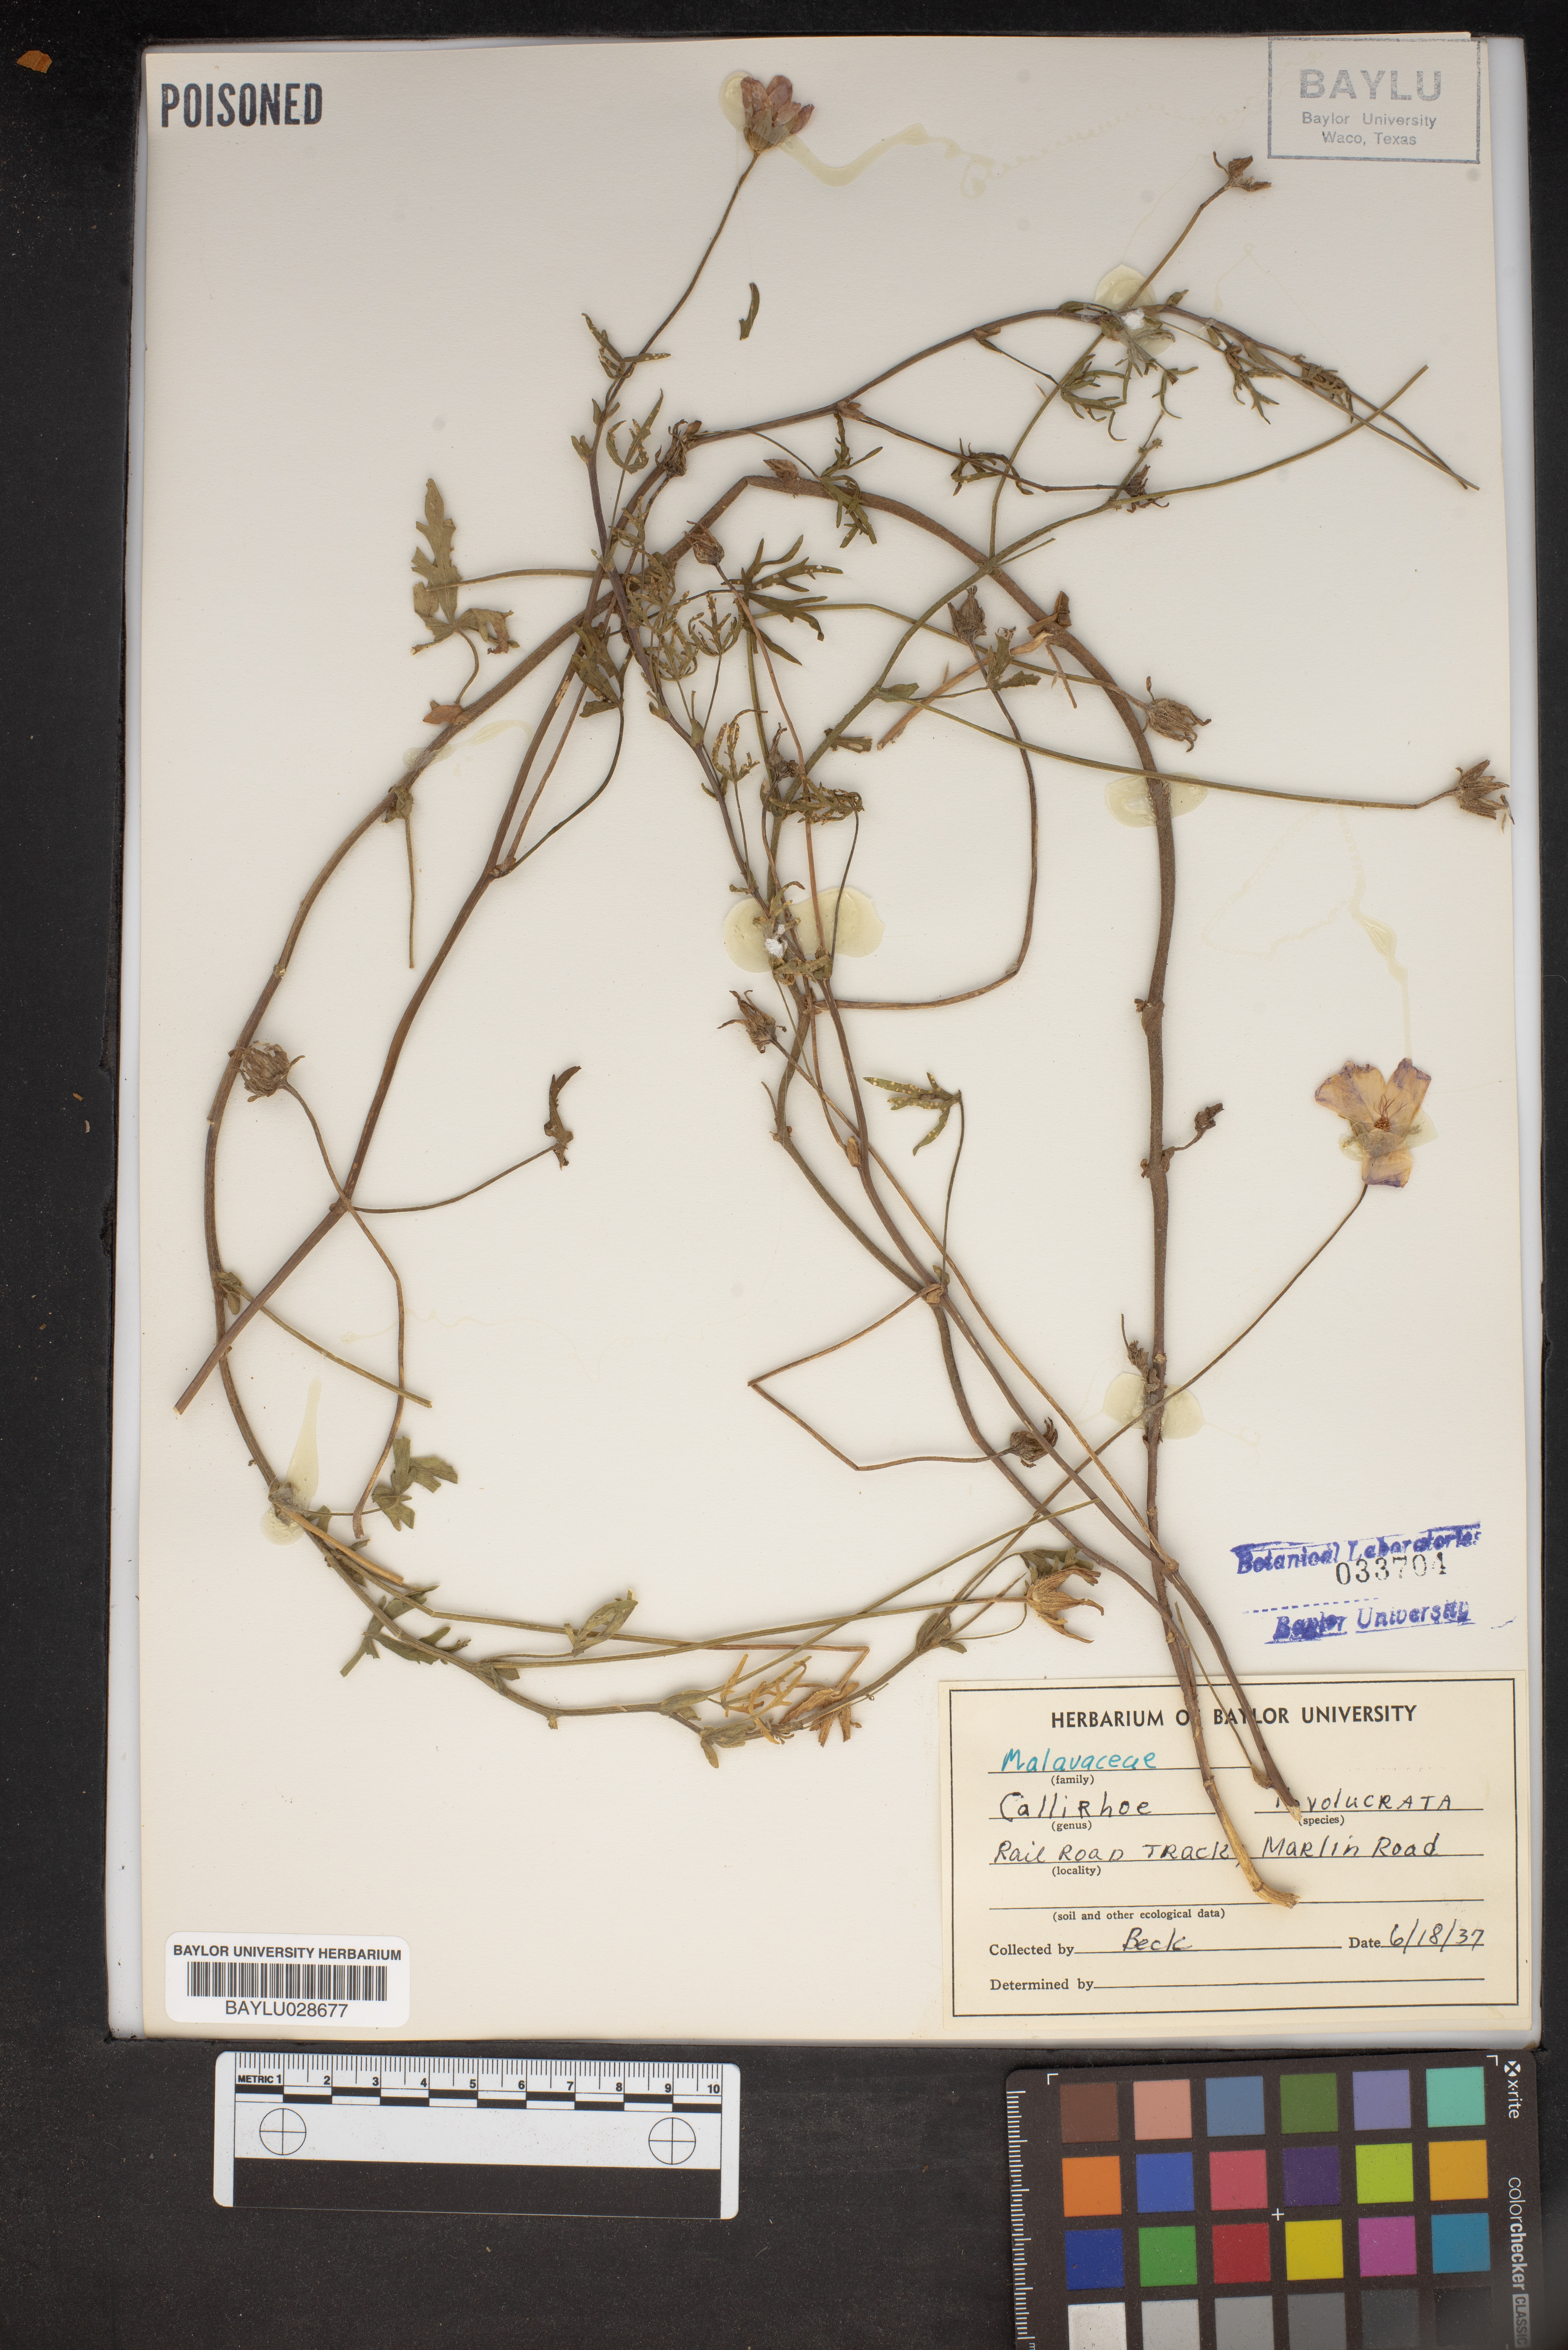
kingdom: Plantae
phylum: Tracheophyta
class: Magnoliopsida
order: Malvales
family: Malvaceae
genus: Callirhoe
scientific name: Callirhoe involucrata
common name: Purple poppy-mallow
